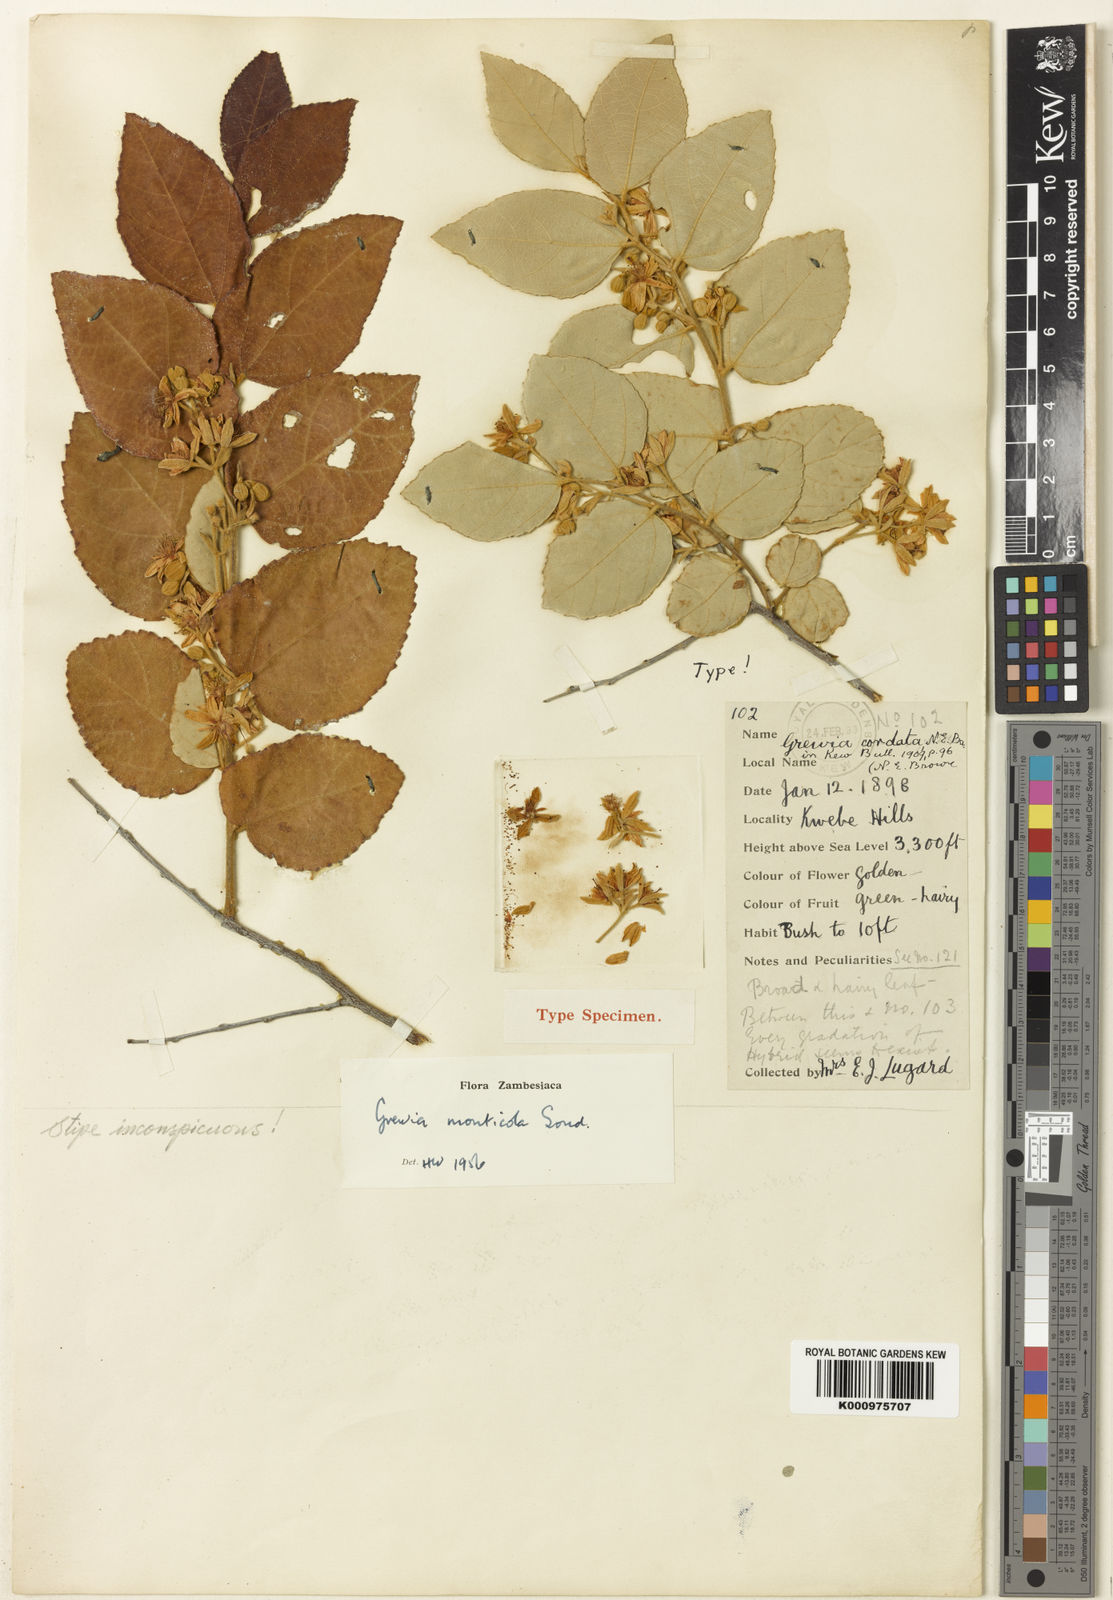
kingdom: Plantae
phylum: Tracheophyta
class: Magnoliopsida
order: Malvales
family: Malvaceae
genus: Grewia
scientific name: Grewia monticola
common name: Grey raisin
